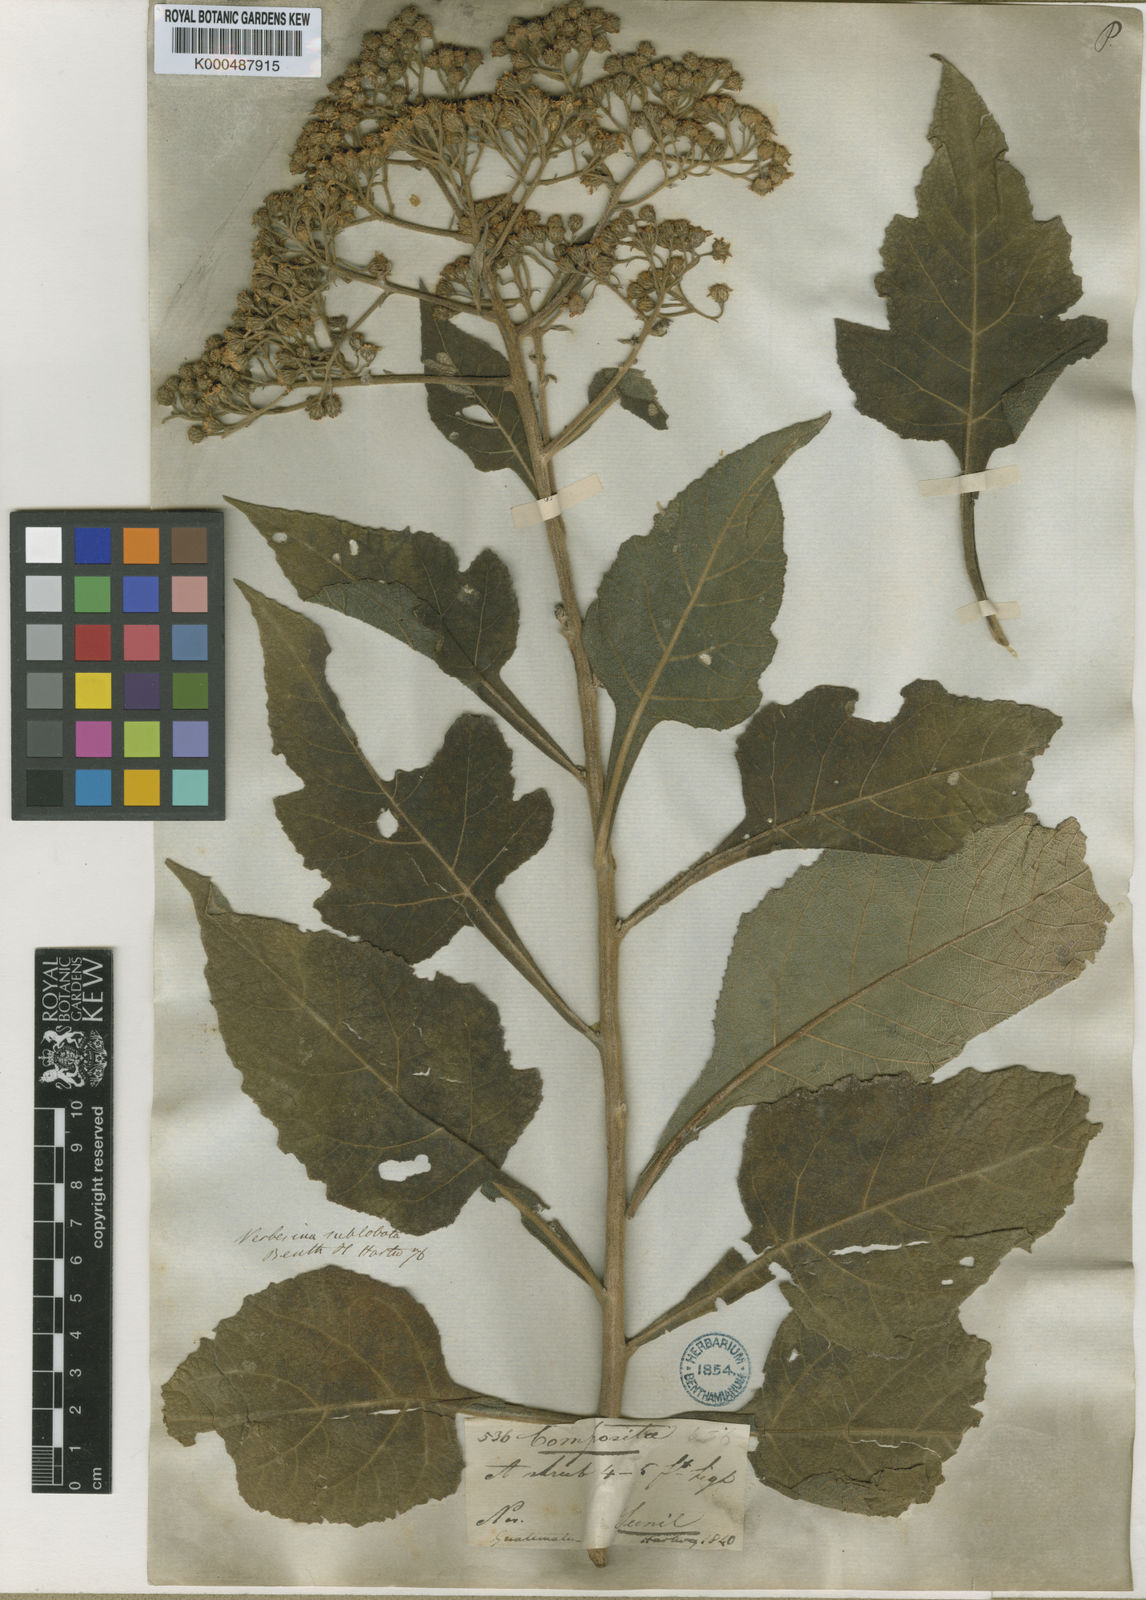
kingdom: Plantae
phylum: Tracheophyta
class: Magnoliopsida
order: Asterales
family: Asteraceae
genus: Verbesina
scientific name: Verbesina turbacensis
